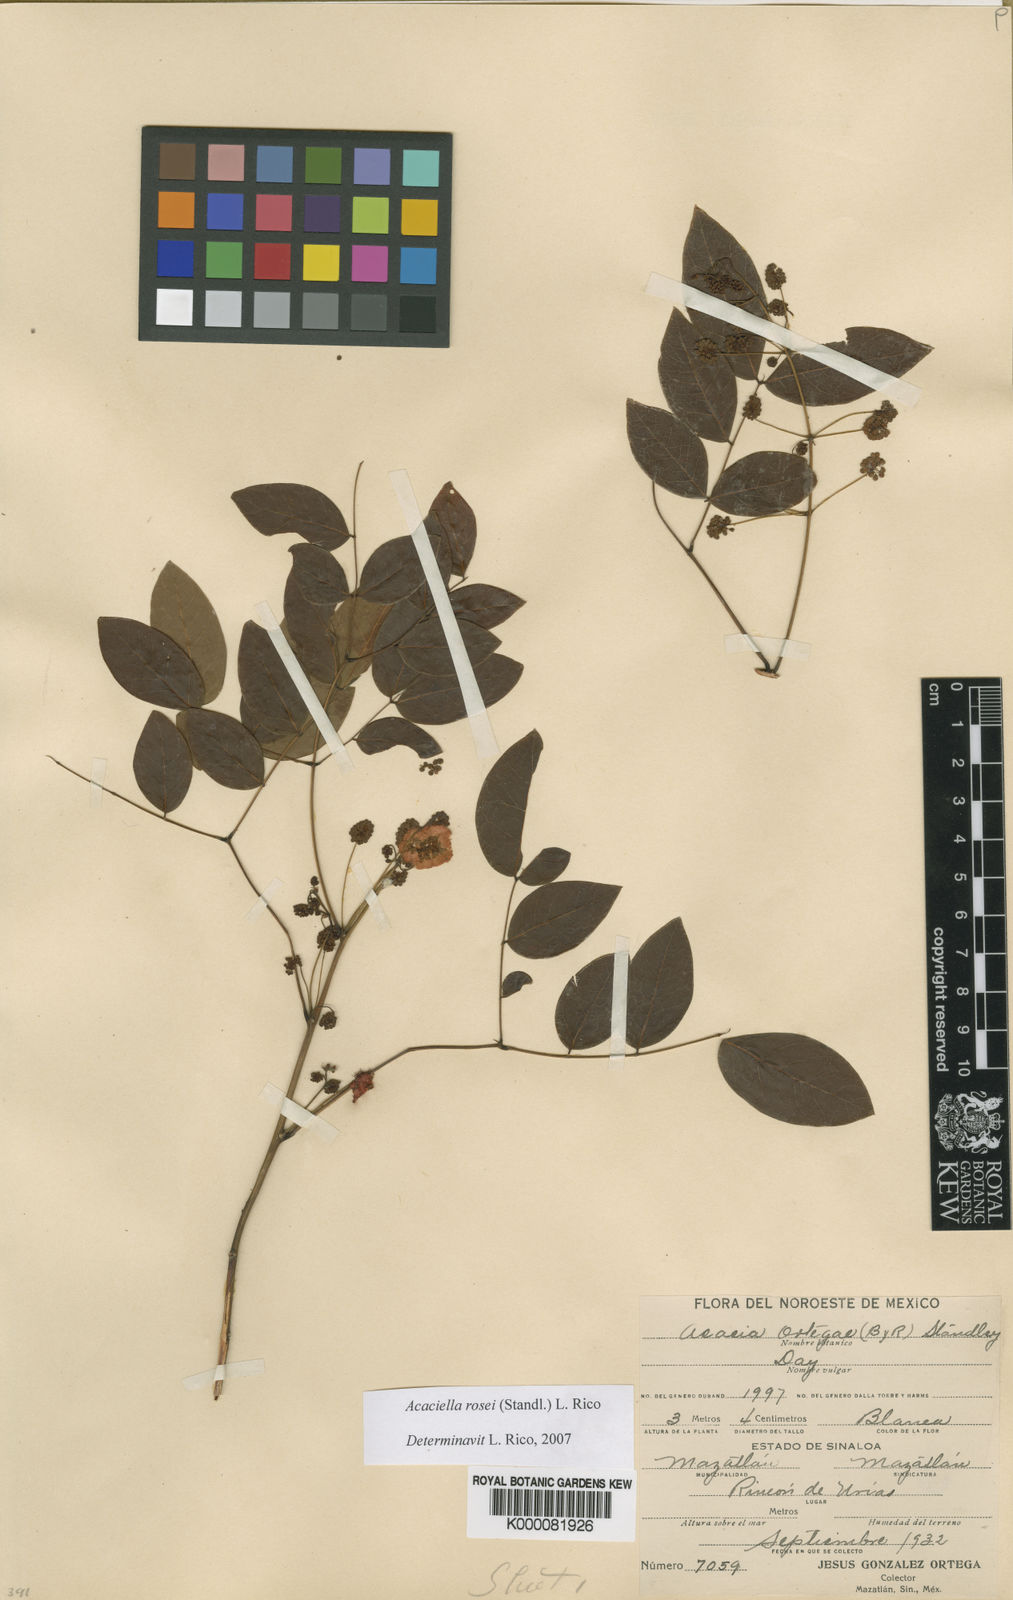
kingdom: Plantae
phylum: Tracheophyta
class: Magnoliopsida
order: Fabales
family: Fabaceae
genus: Acaciella
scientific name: Acaciella rosei
